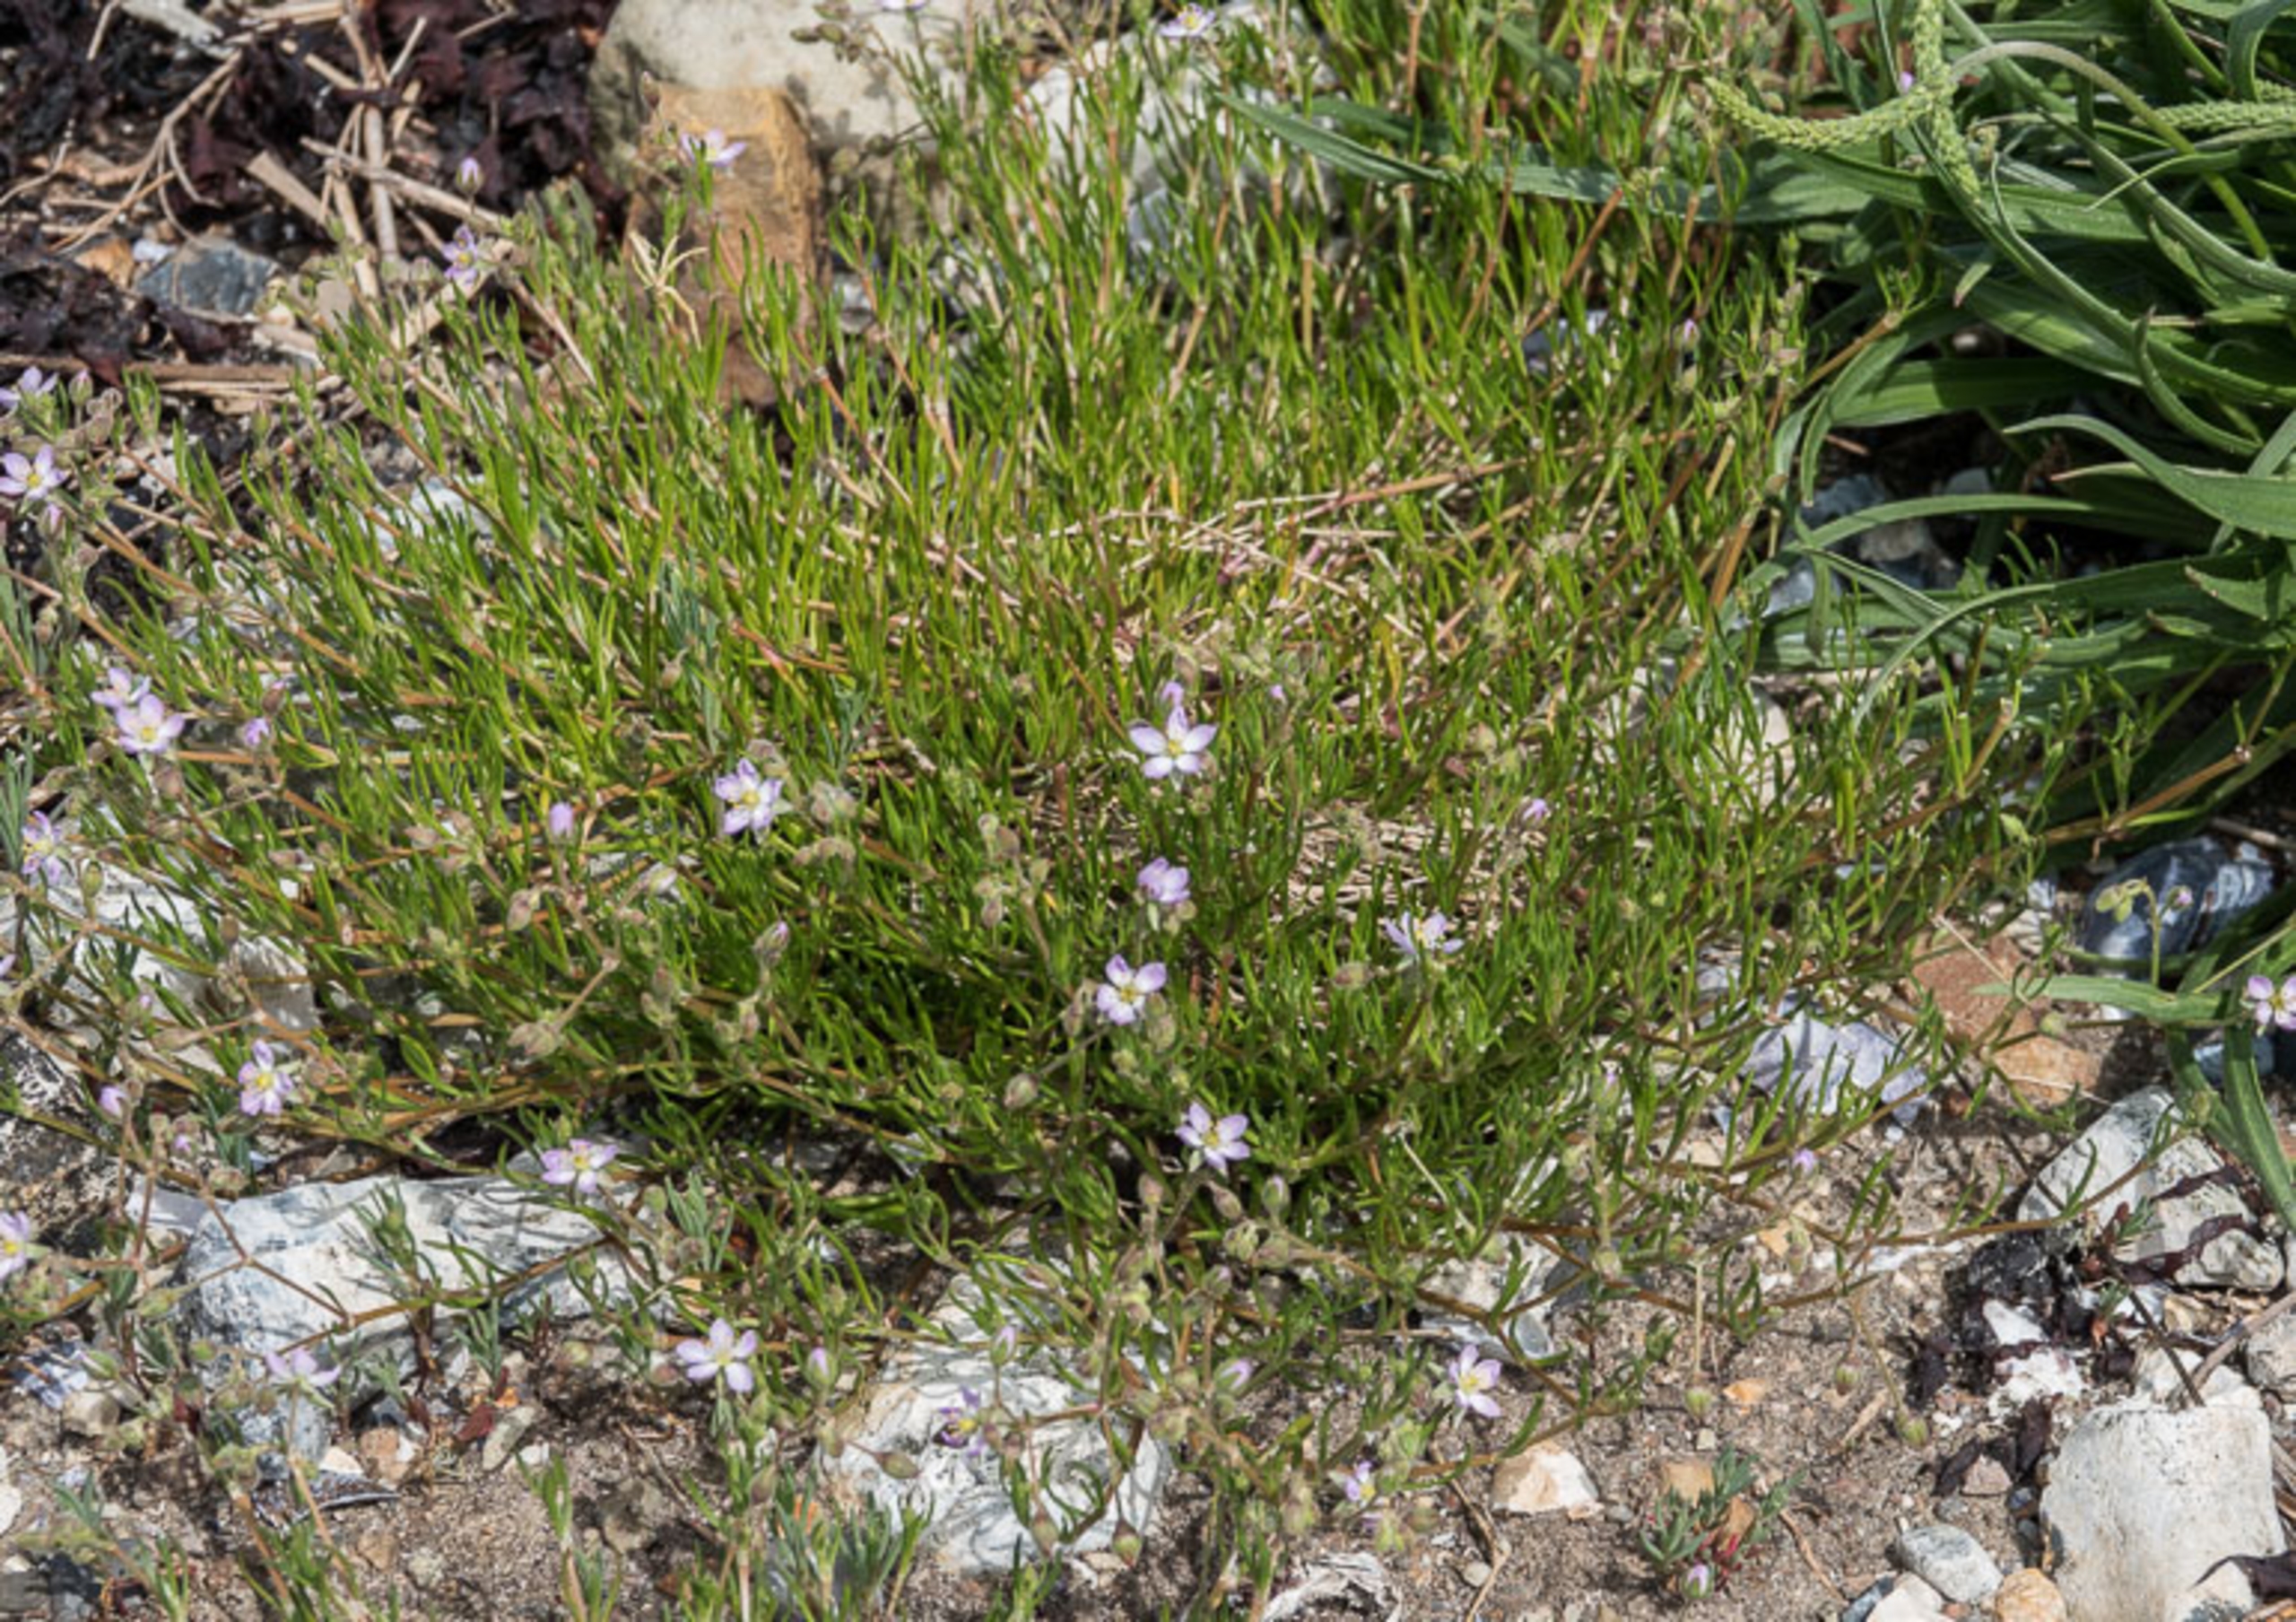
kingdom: Plantae
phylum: Tracheophyta
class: Magnoliopsida
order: Caryophyllales
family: Caryophyllaceae
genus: Spergularia
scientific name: Spergularia media
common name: Vingefrøet hindeknæ
